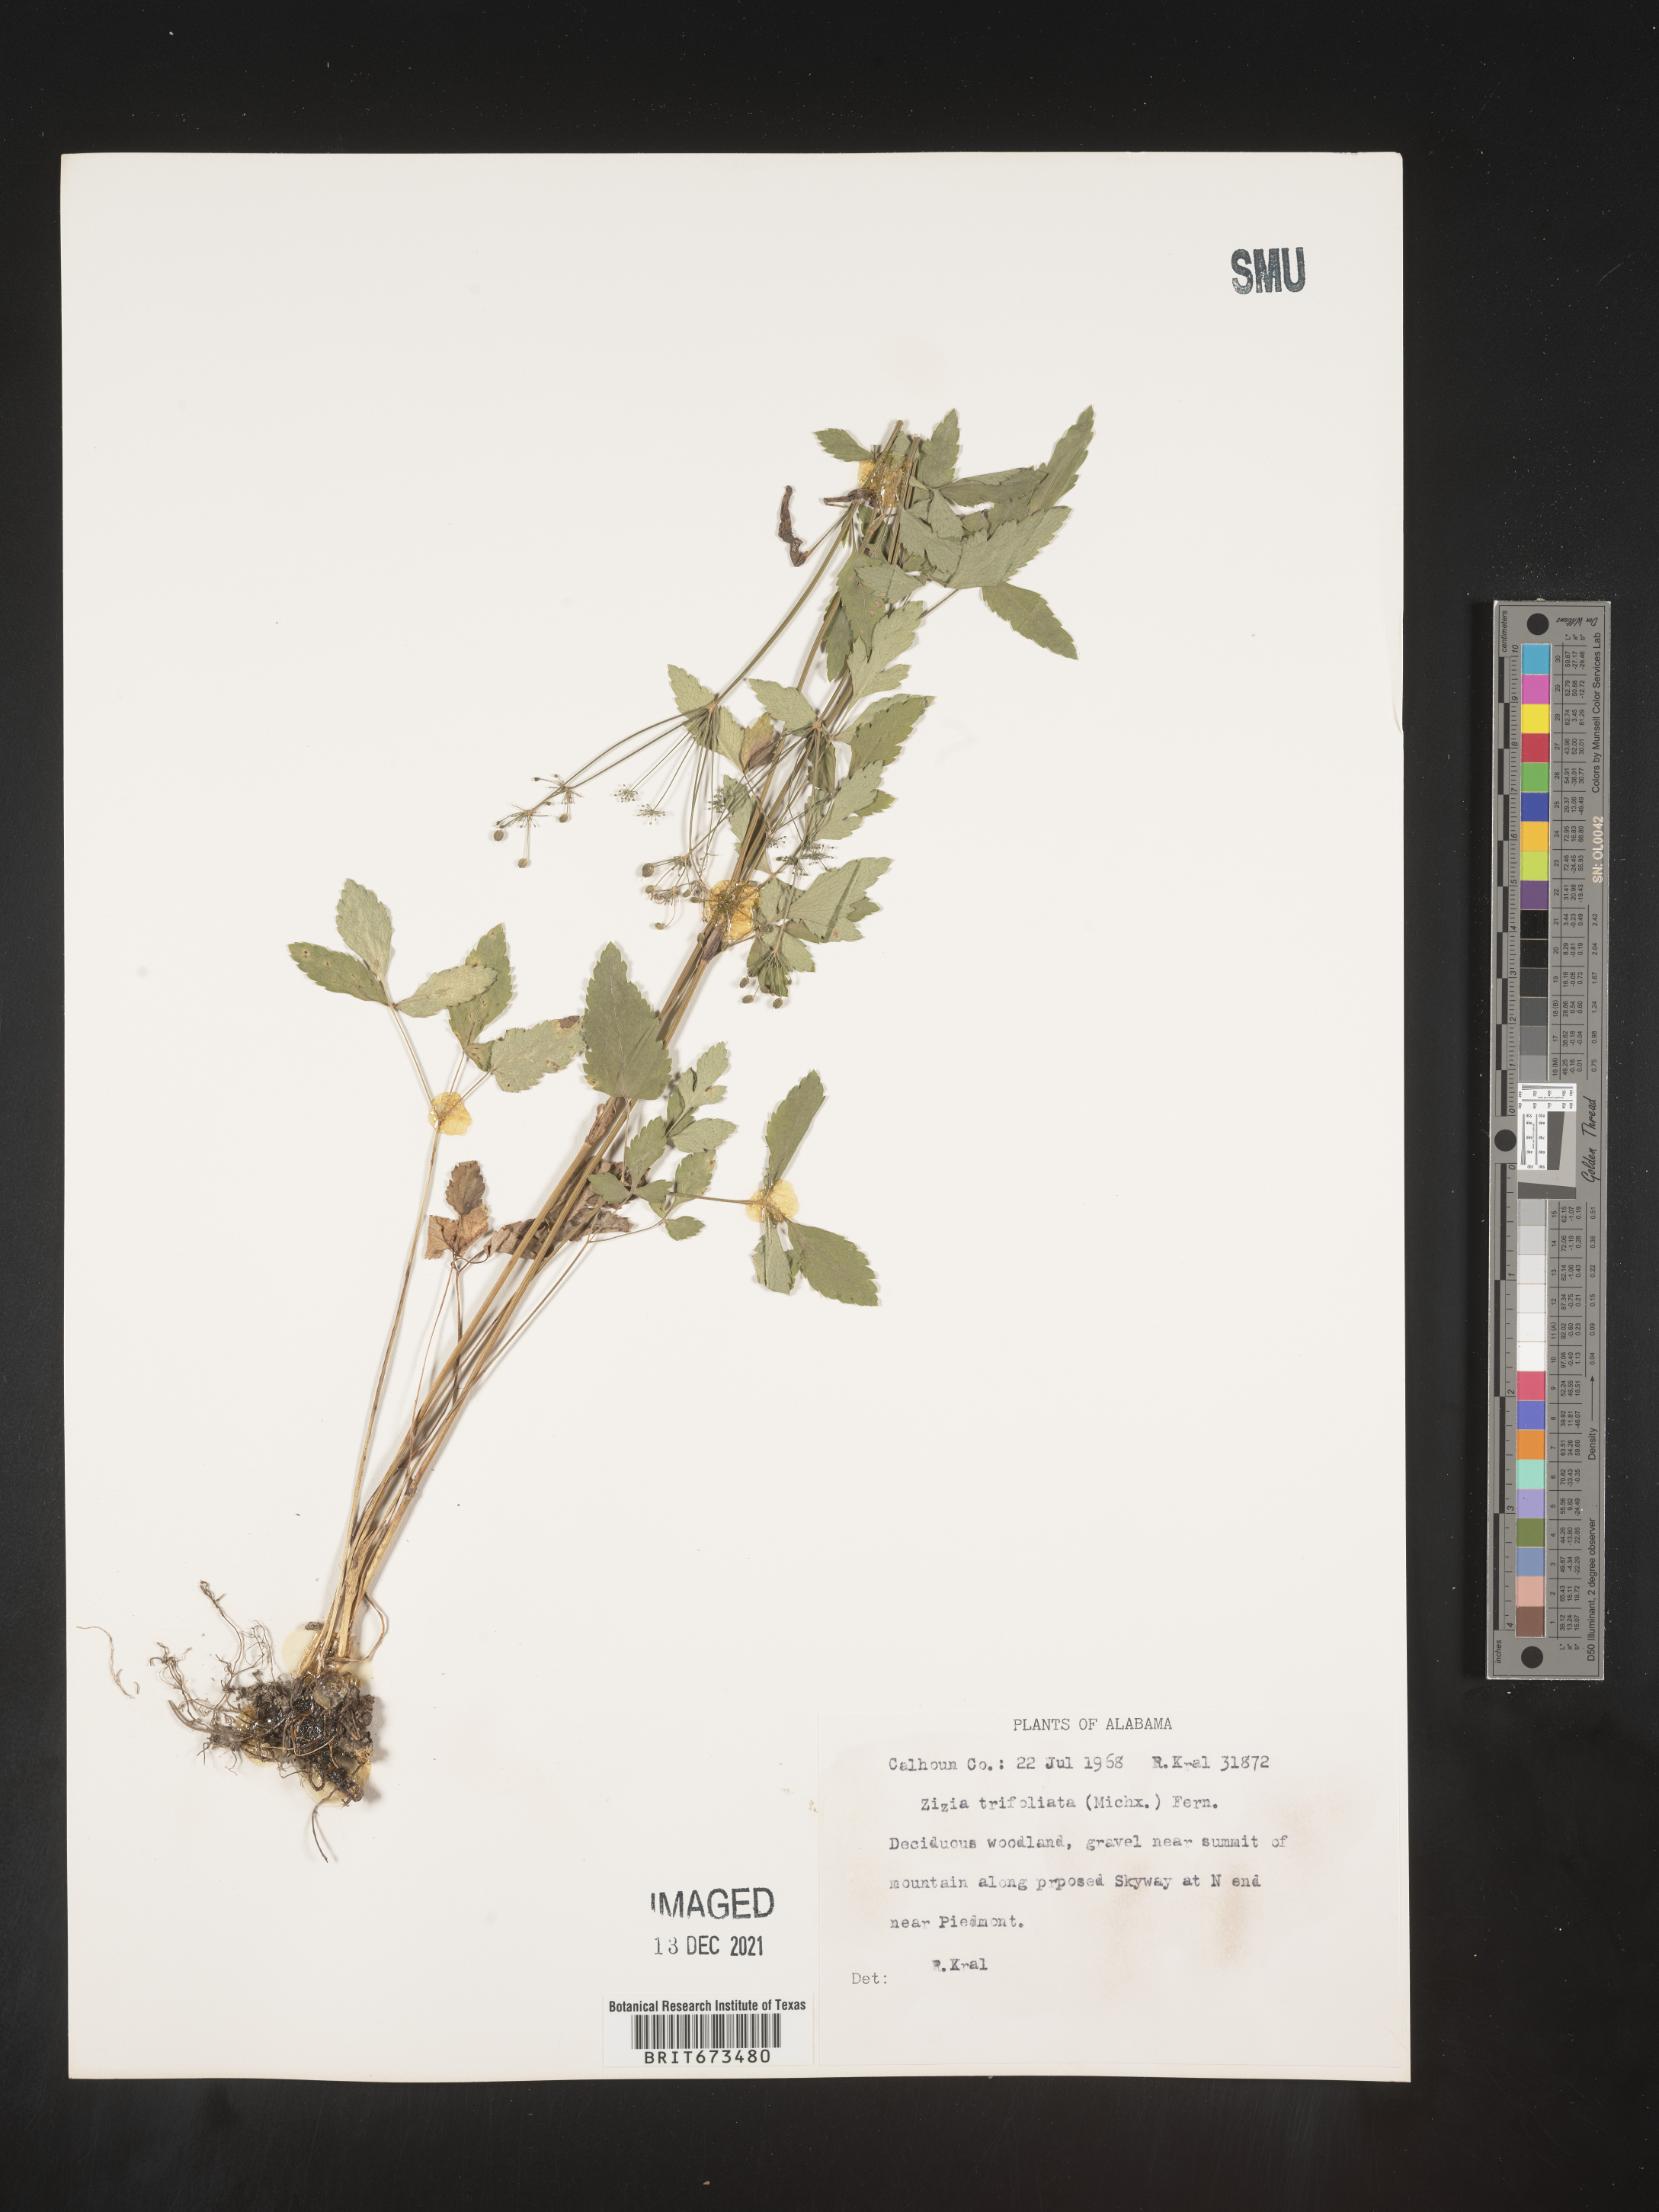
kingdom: Plantae
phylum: Tracheophyta
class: Magnoliopsida
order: Apiales
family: Apiaceae
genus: Zizia
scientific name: Zizia trifoliata
